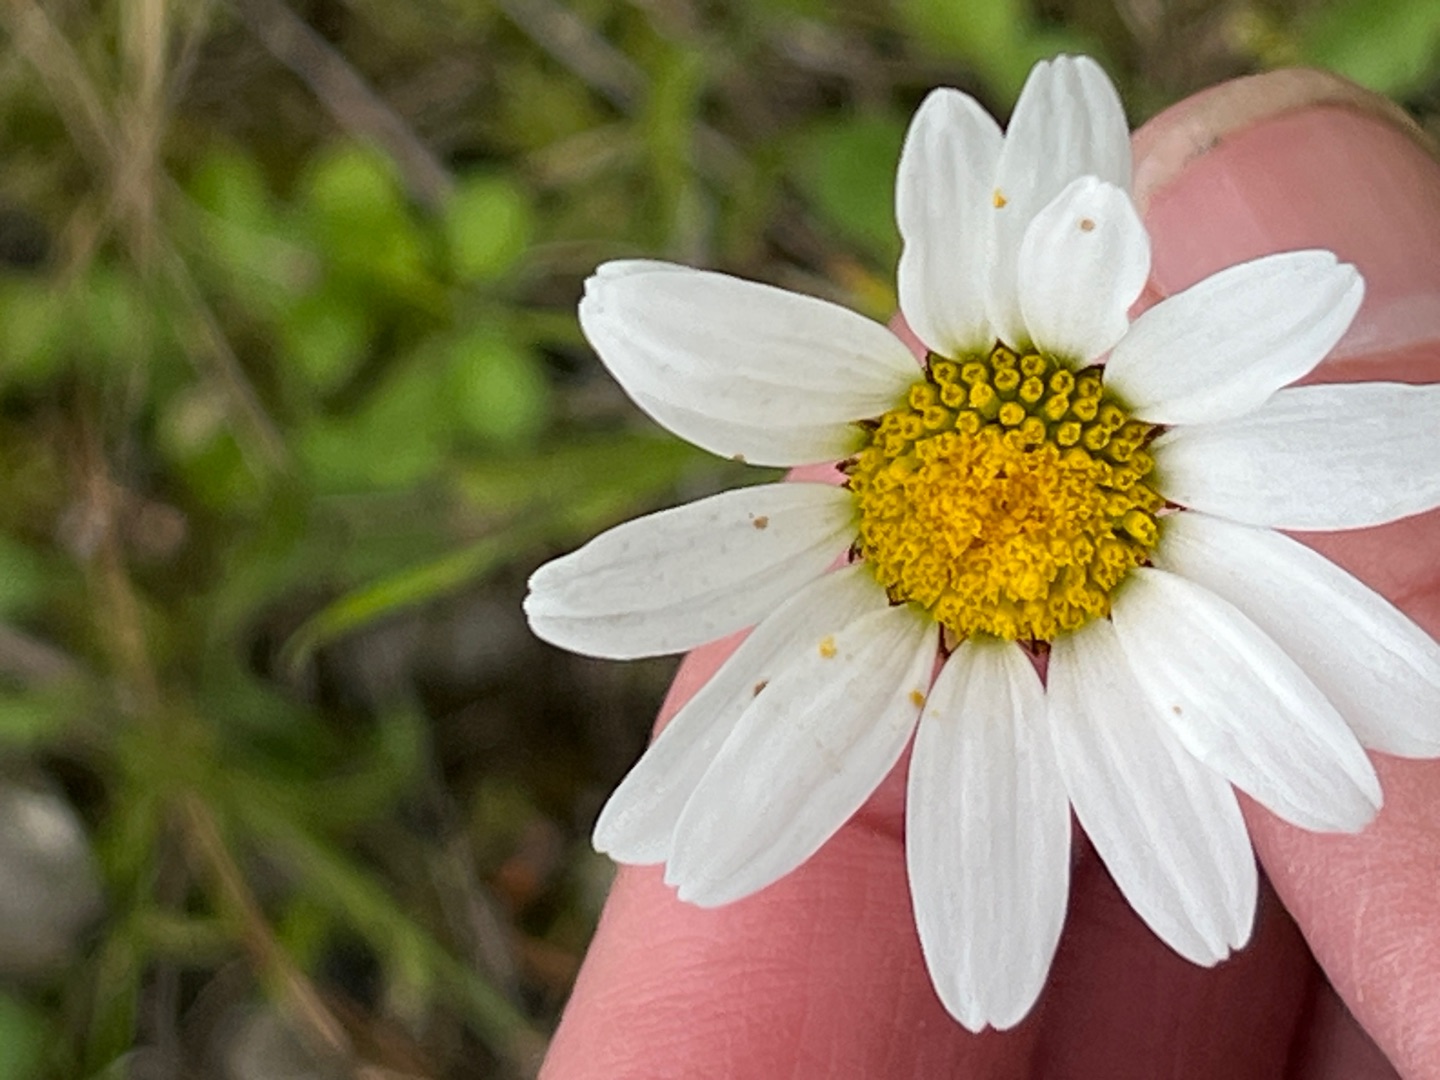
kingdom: Plantae
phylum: Tracheophyta
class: Magnoliopsida
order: Asterales
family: Asteraceae
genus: Leucanthemum
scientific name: Leucanthemum vulgare
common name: Hvid okseøje
